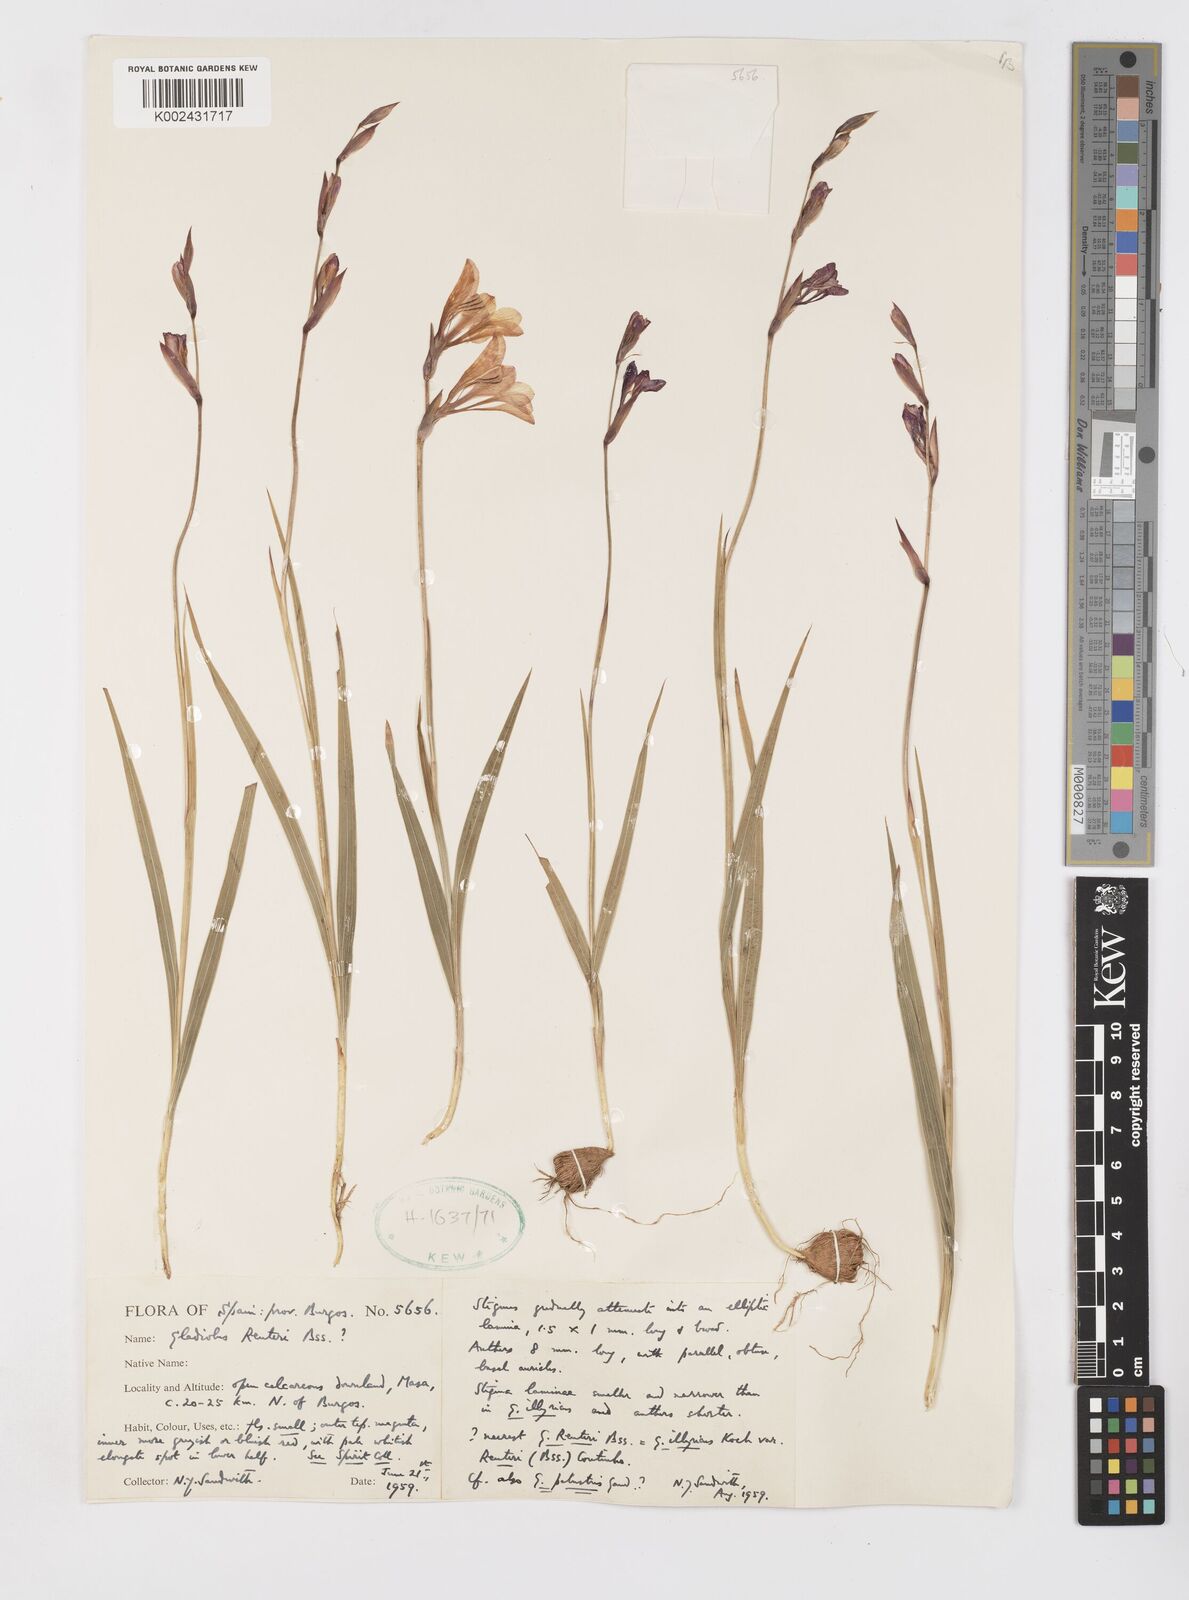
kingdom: Plantae
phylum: Tracheophyta
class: Liliopsida
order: Asparagales
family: Iridaceae
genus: Gladiolus
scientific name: Gladiolus illyricus
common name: Wild gladiolus
